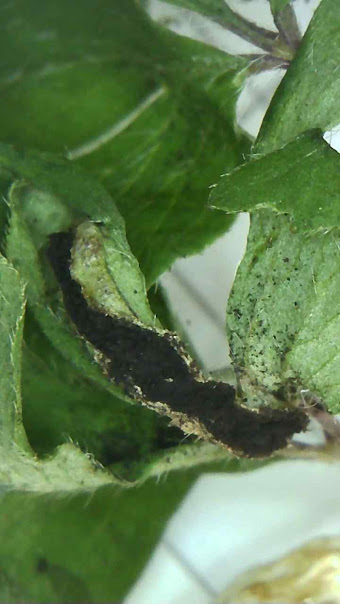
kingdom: Fungi
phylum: Basidiomycota
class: Ustilaginomycetes
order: Urocystidales
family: Urocystidaceae
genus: Urocystis
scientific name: Urocystis anemones
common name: anemone-brand
